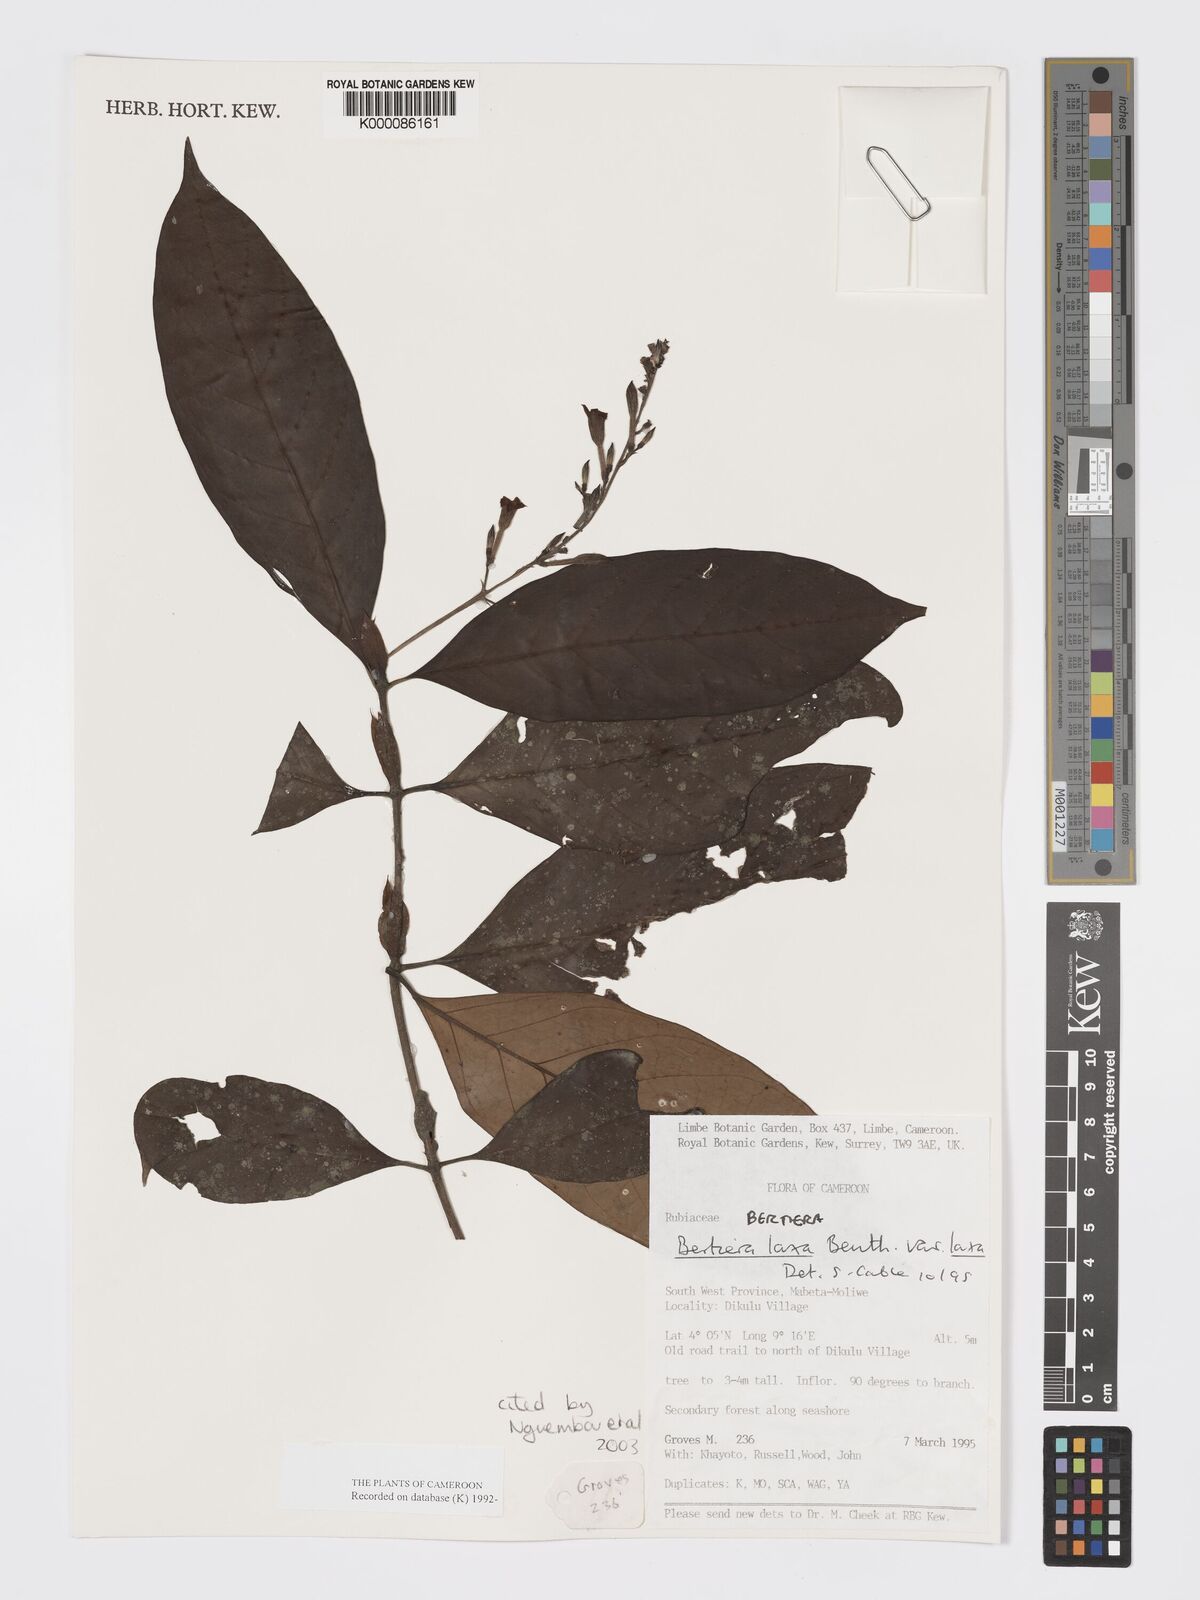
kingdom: Plantae
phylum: Tracheophyta
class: Magnoliopsida
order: Gentianales
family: Rubiaceae
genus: Bertiera
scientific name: Bertiera laxa
